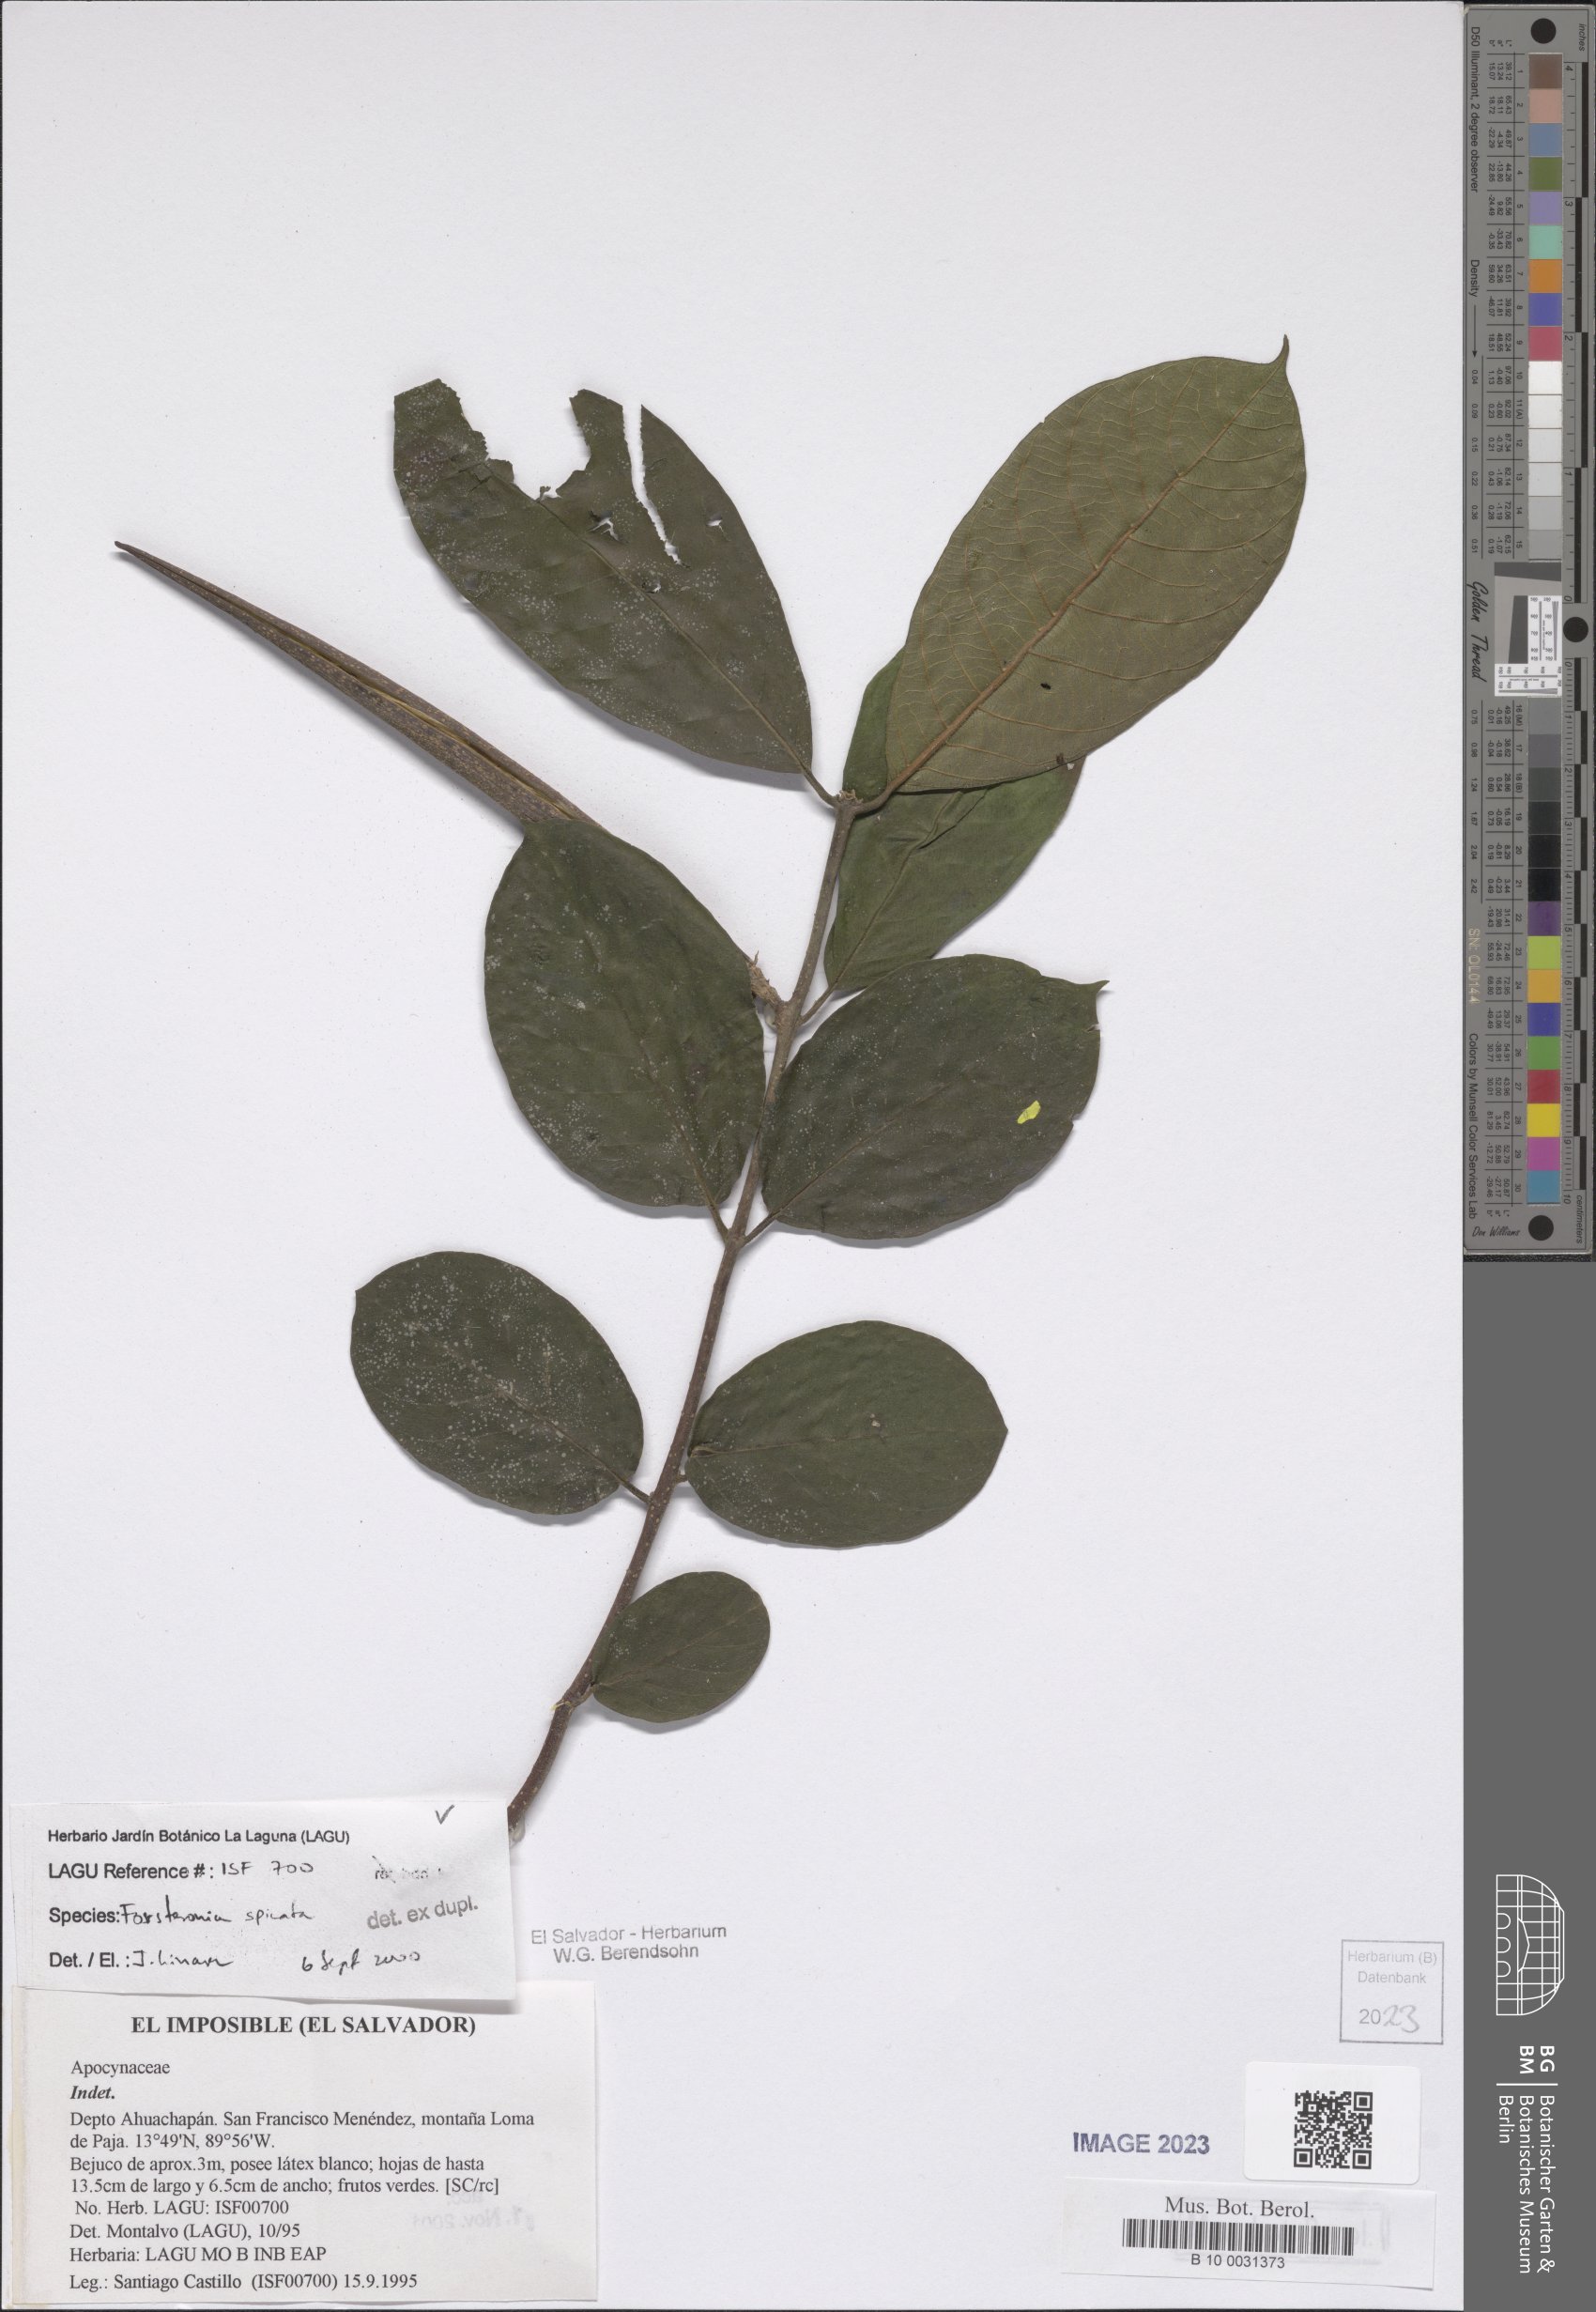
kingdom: Plantae
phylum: Tracheophyta
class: Magnoliopsida
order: Gentianales
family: Apocynaceae
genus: Forsteronia
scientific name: Forsteronia spicata
